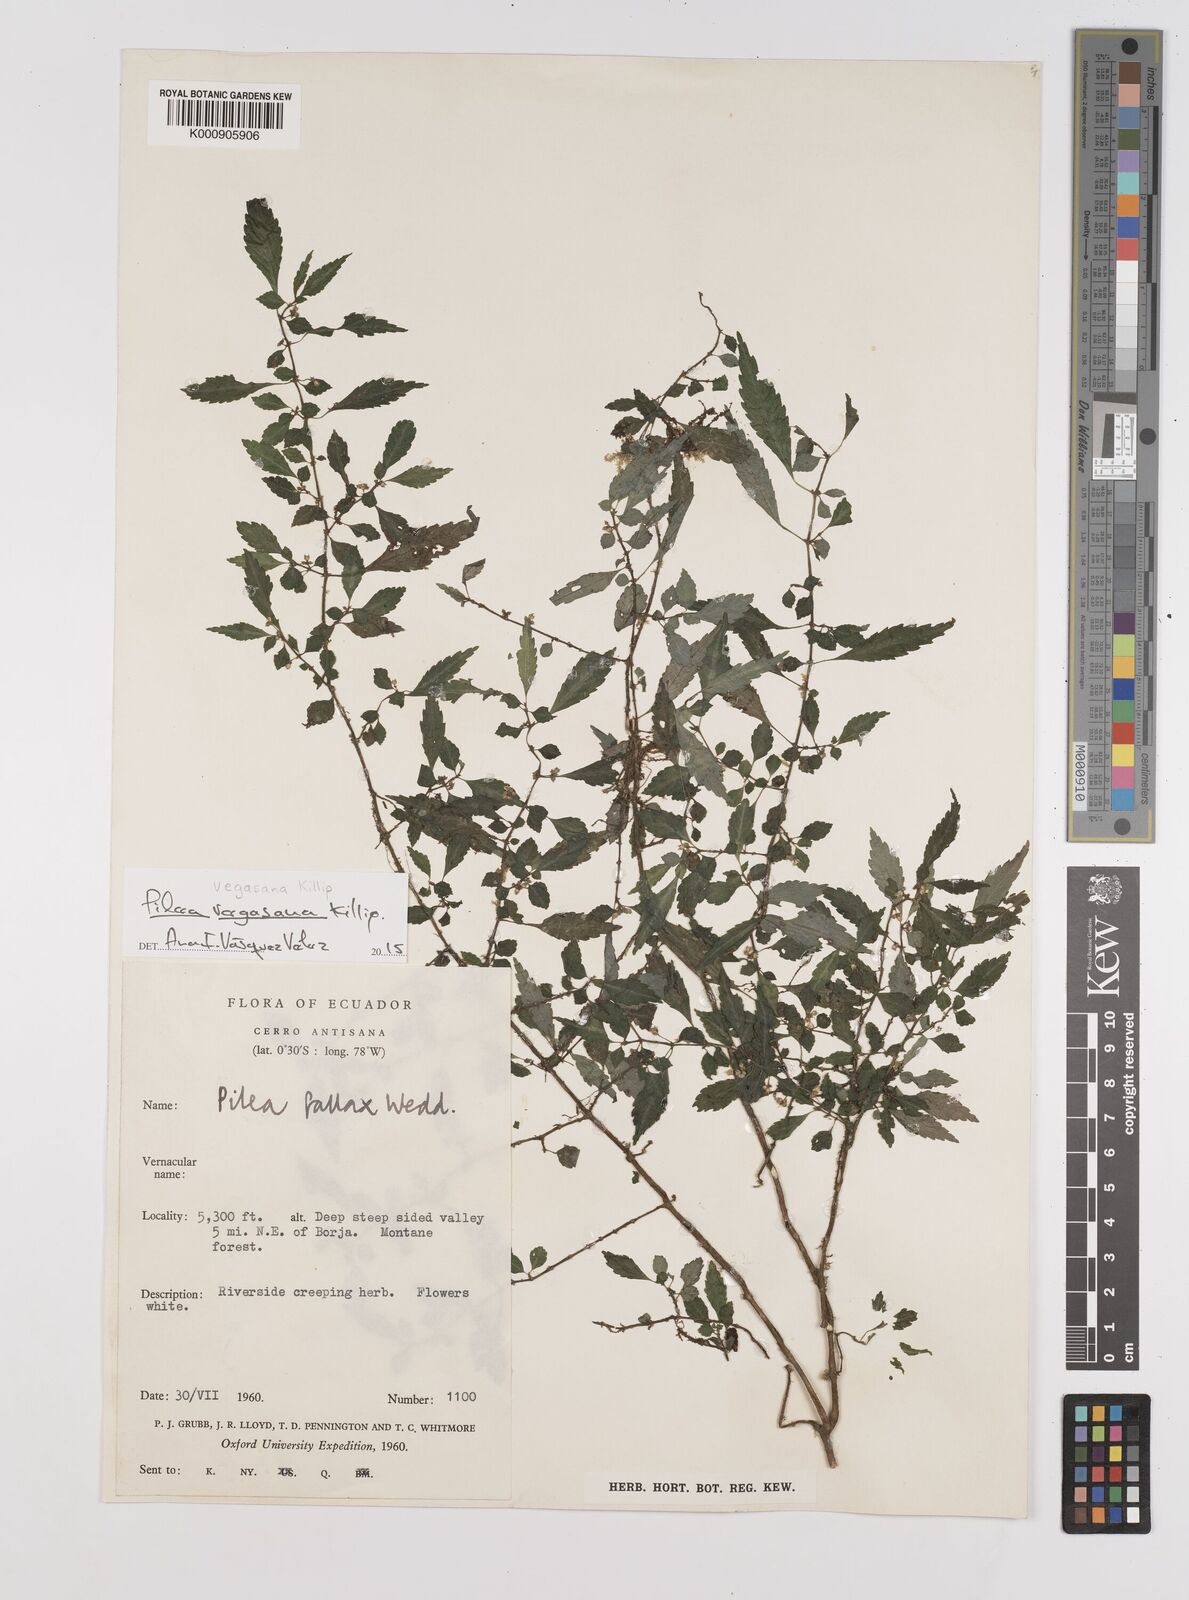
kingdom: Plantae
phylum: Tracheophyta
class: Magnoliopsida
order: Rosales
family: Urticaceae
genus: Pilea
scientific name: Pilea vegasana
